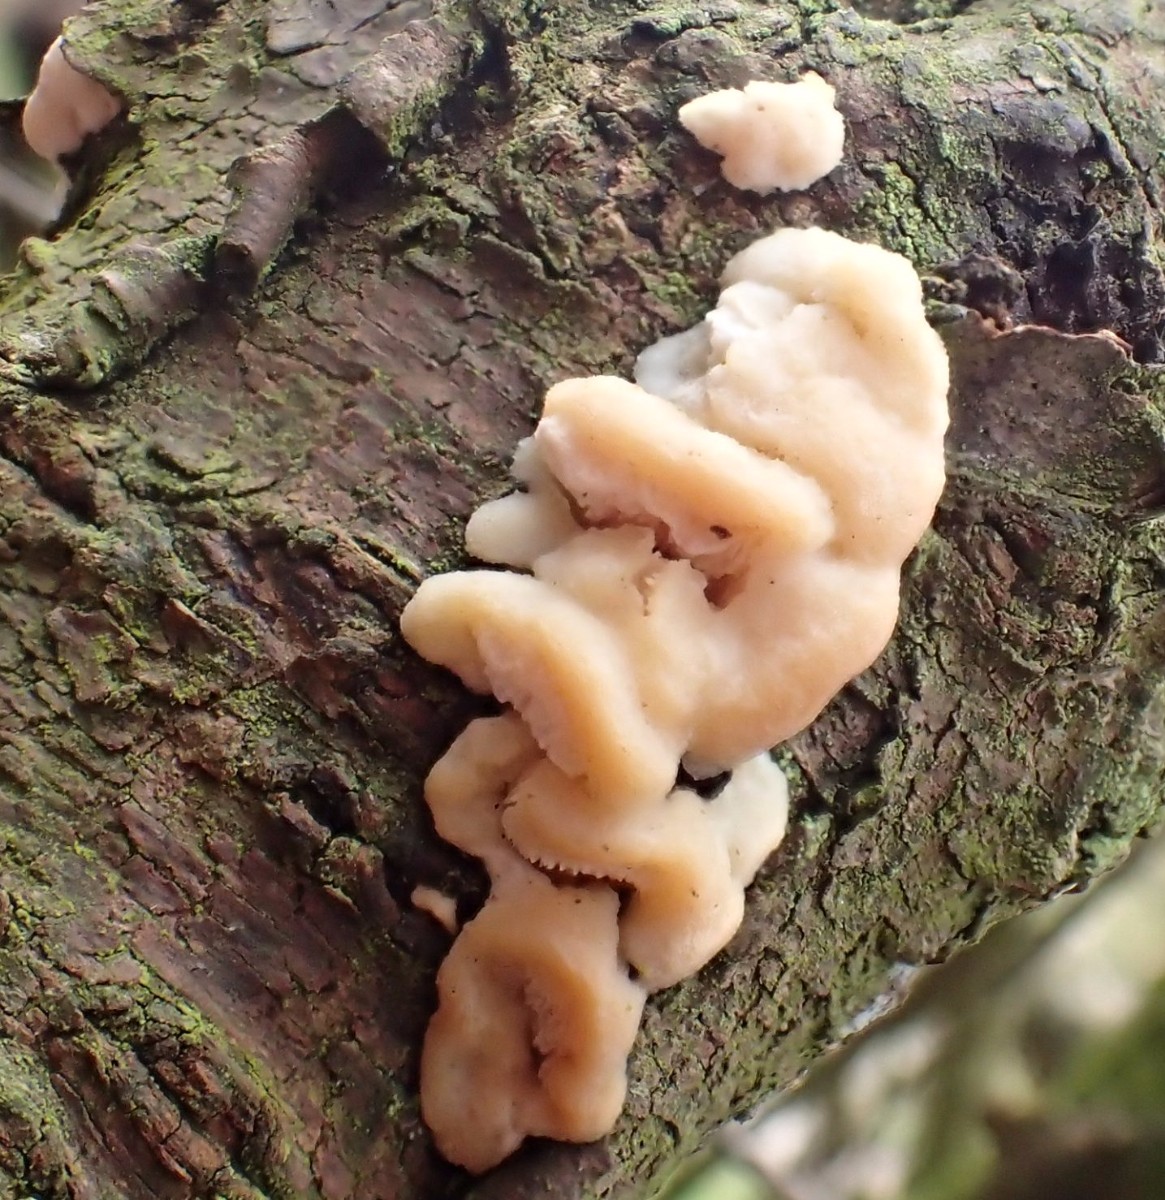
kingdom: Fungi
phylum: Basidiomycota
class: Agaricomycetes
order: Polyporales
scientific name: Polyporales
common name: poresvampordenen
